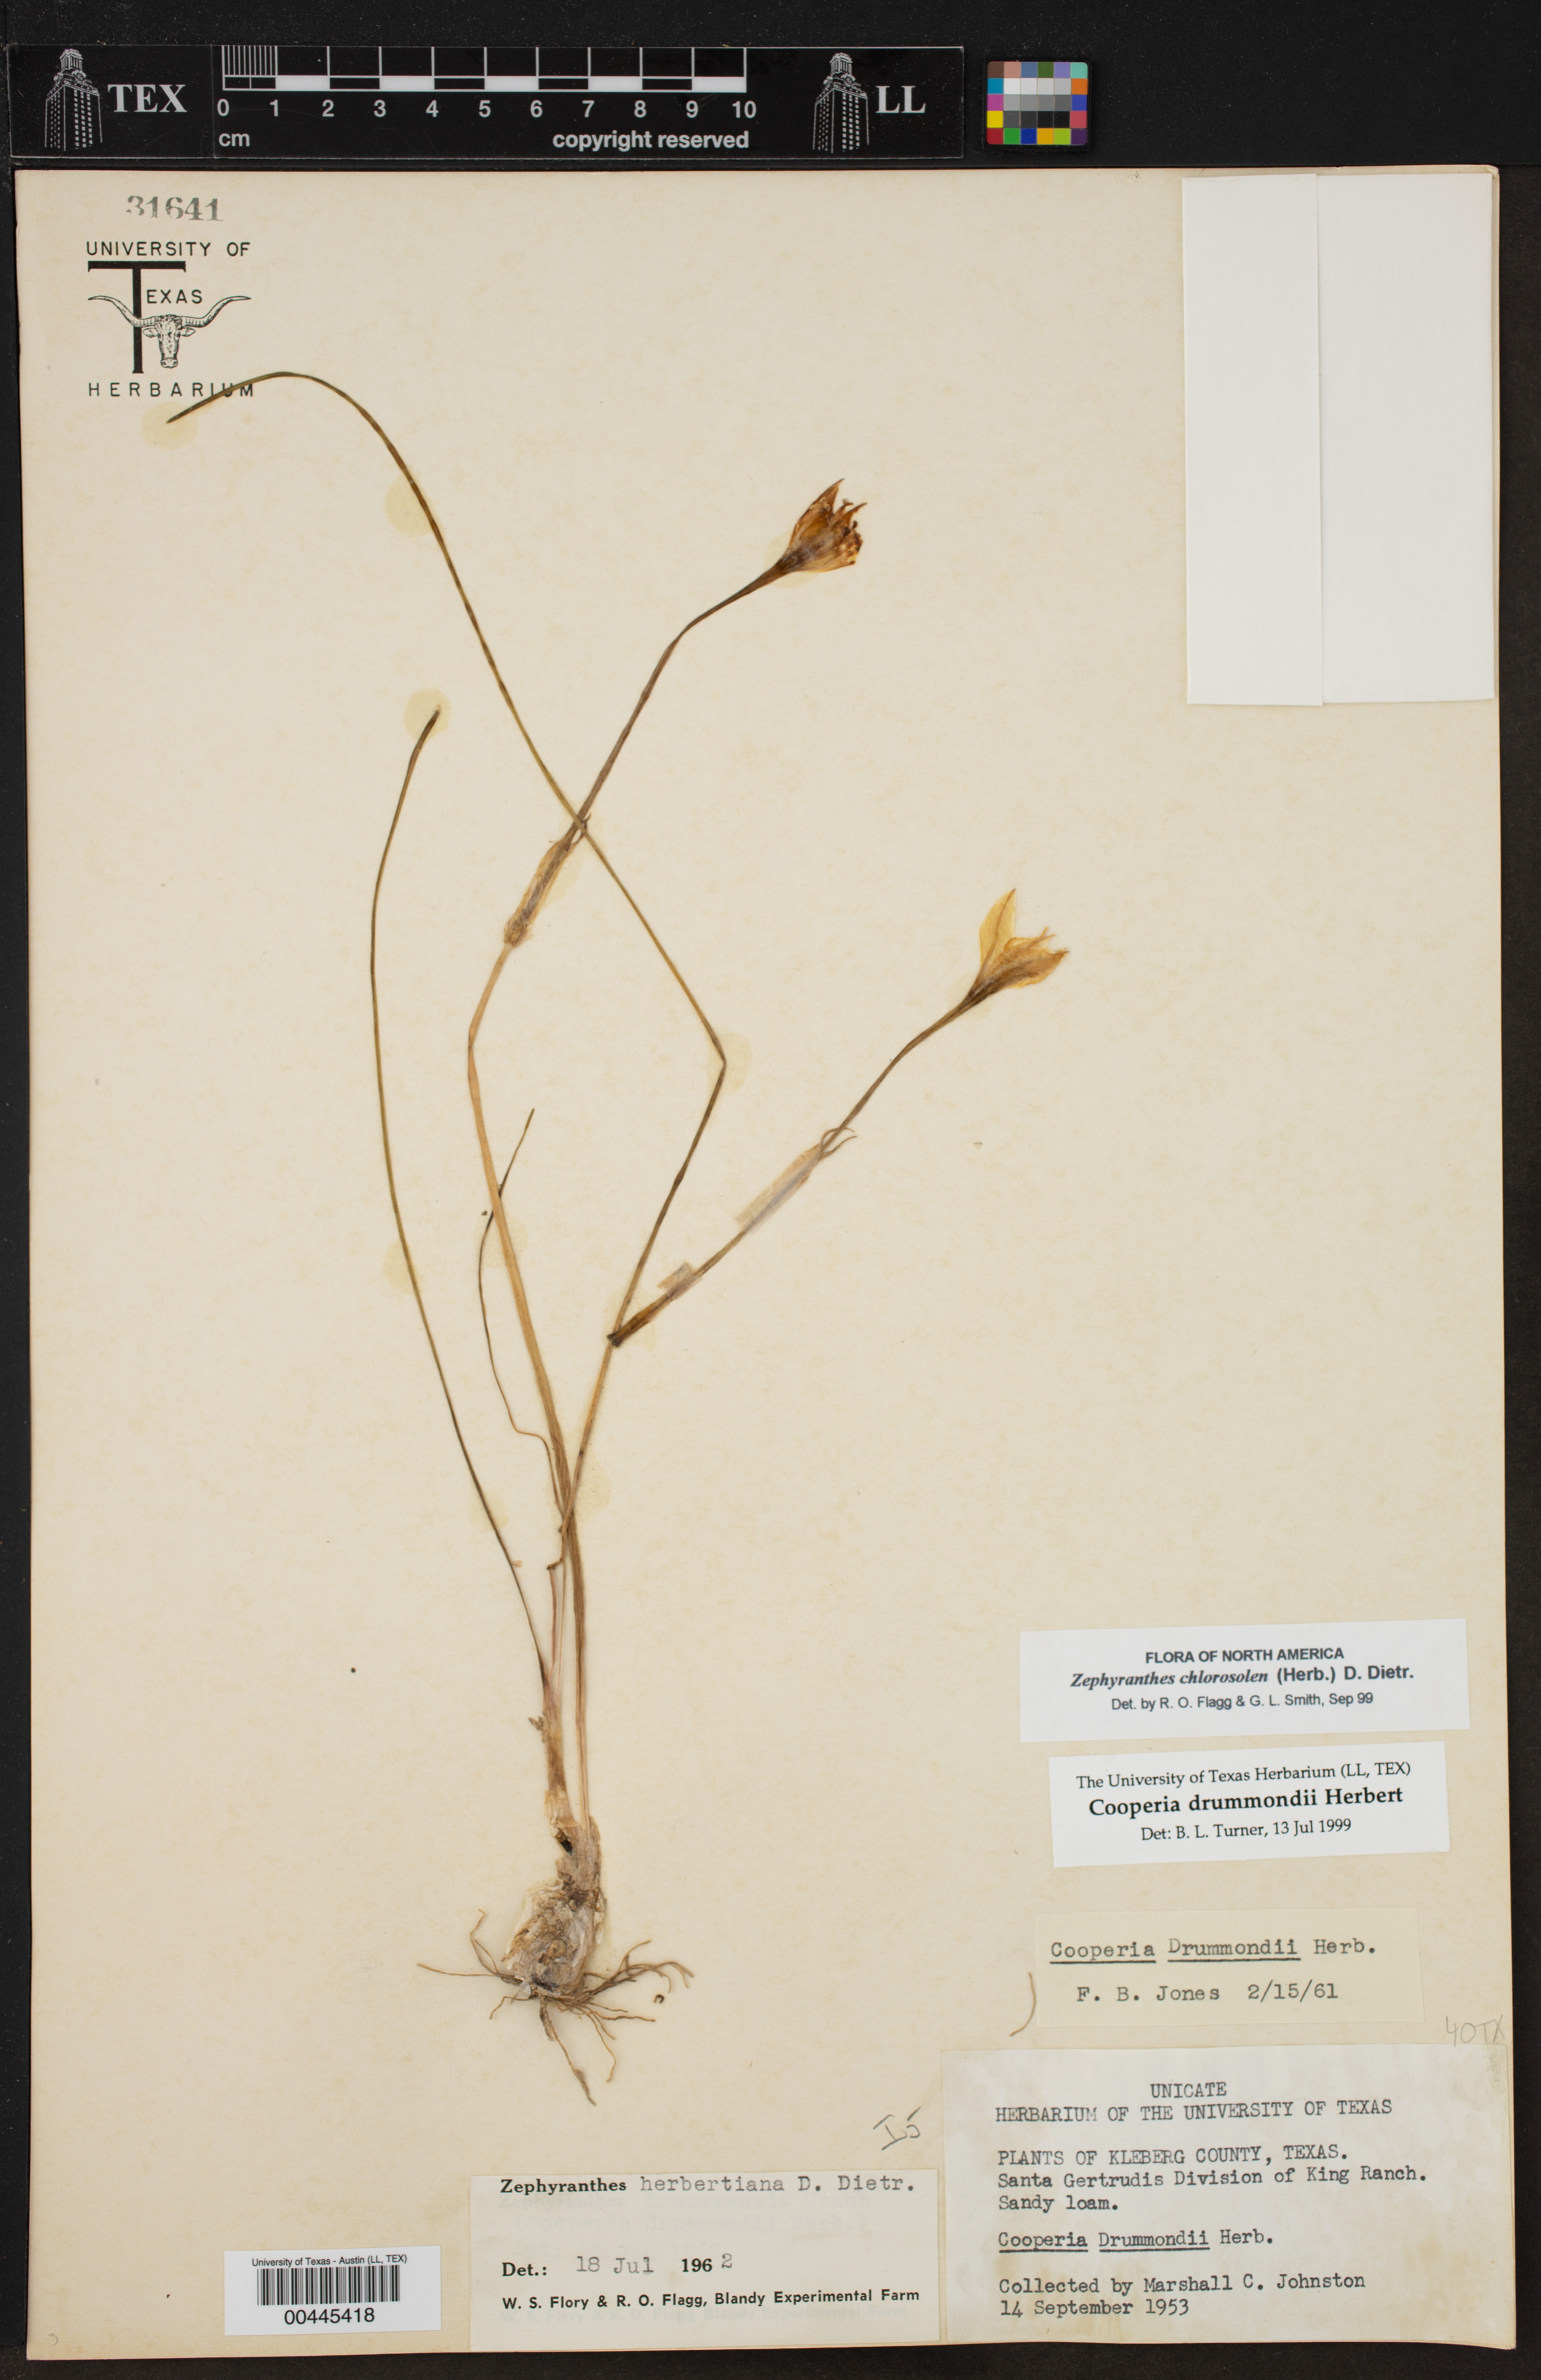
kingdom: Plantae
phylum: Tracheophyta
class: Liliopsida
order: Asparagales
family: Amaryllidaceae
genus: Zephyranthes
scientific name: Zephyranthes chlorosolen
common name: Evening rain-lily
